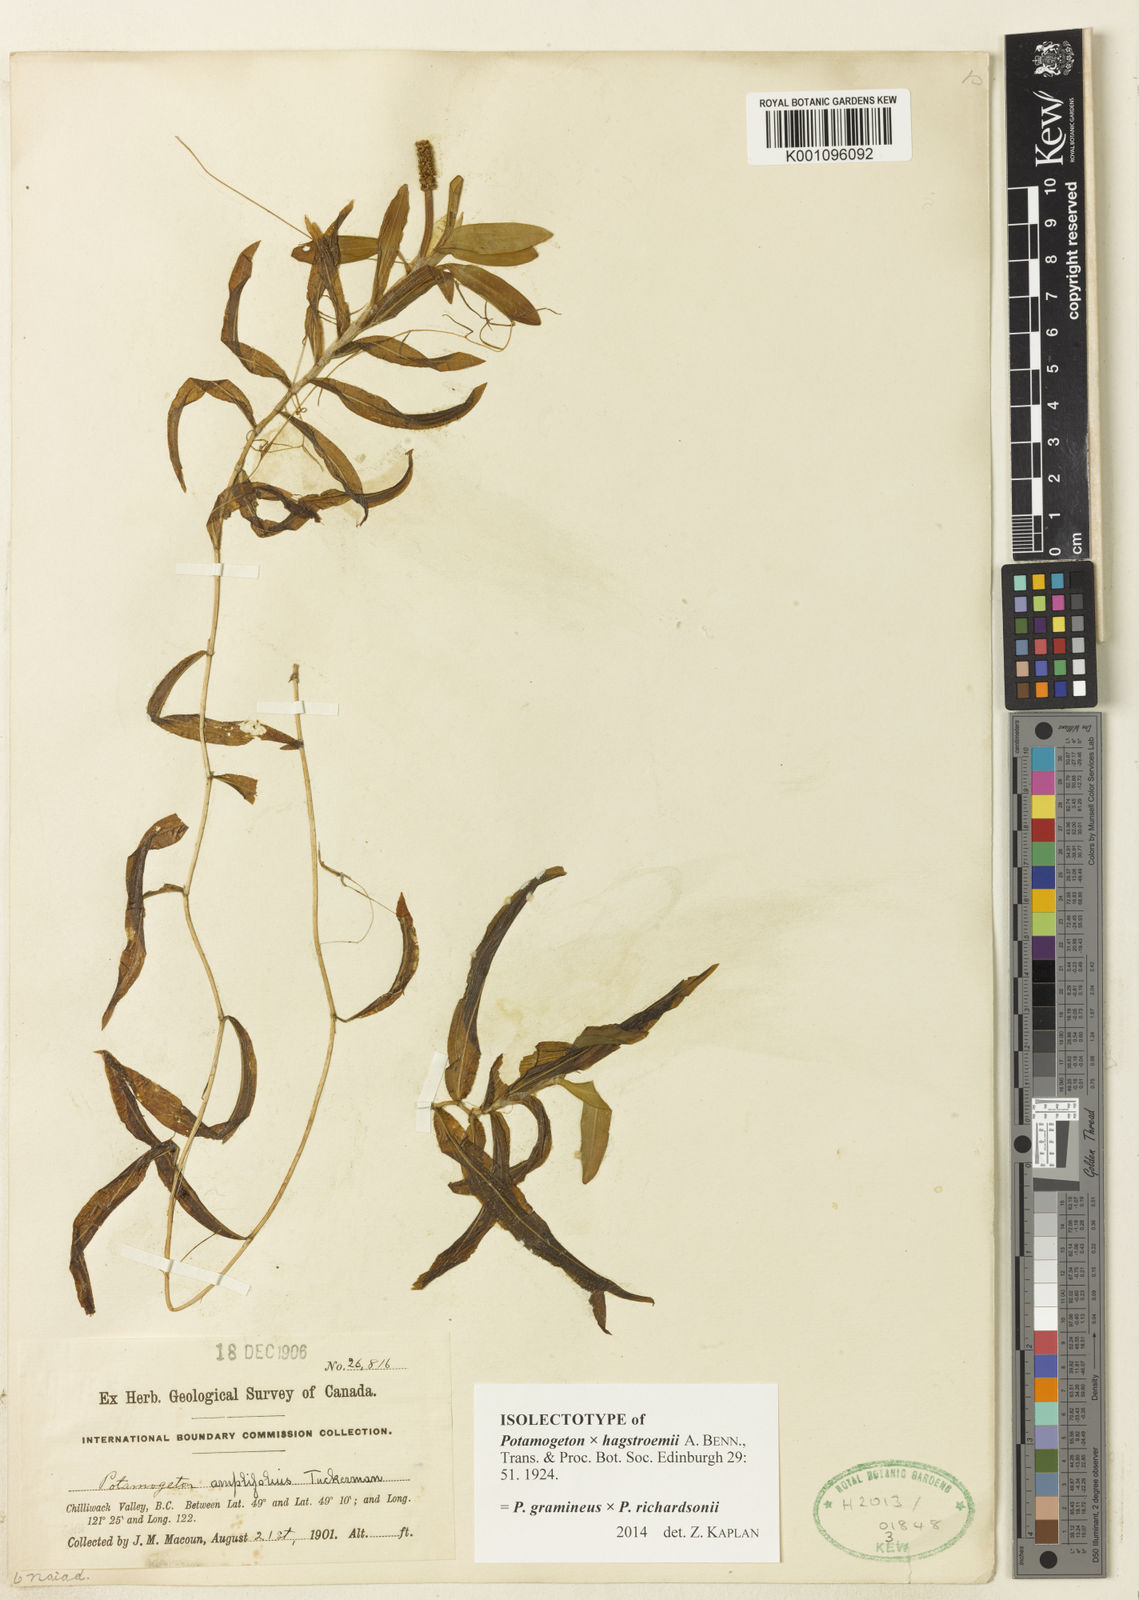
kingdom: Plantae
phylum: Tracheophyta
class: Liliopsida
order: Alismatales
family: Potamogetonaceae
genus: Potamogeton
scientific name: Potamogeton gramineus
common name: Various-leaved pondweed
